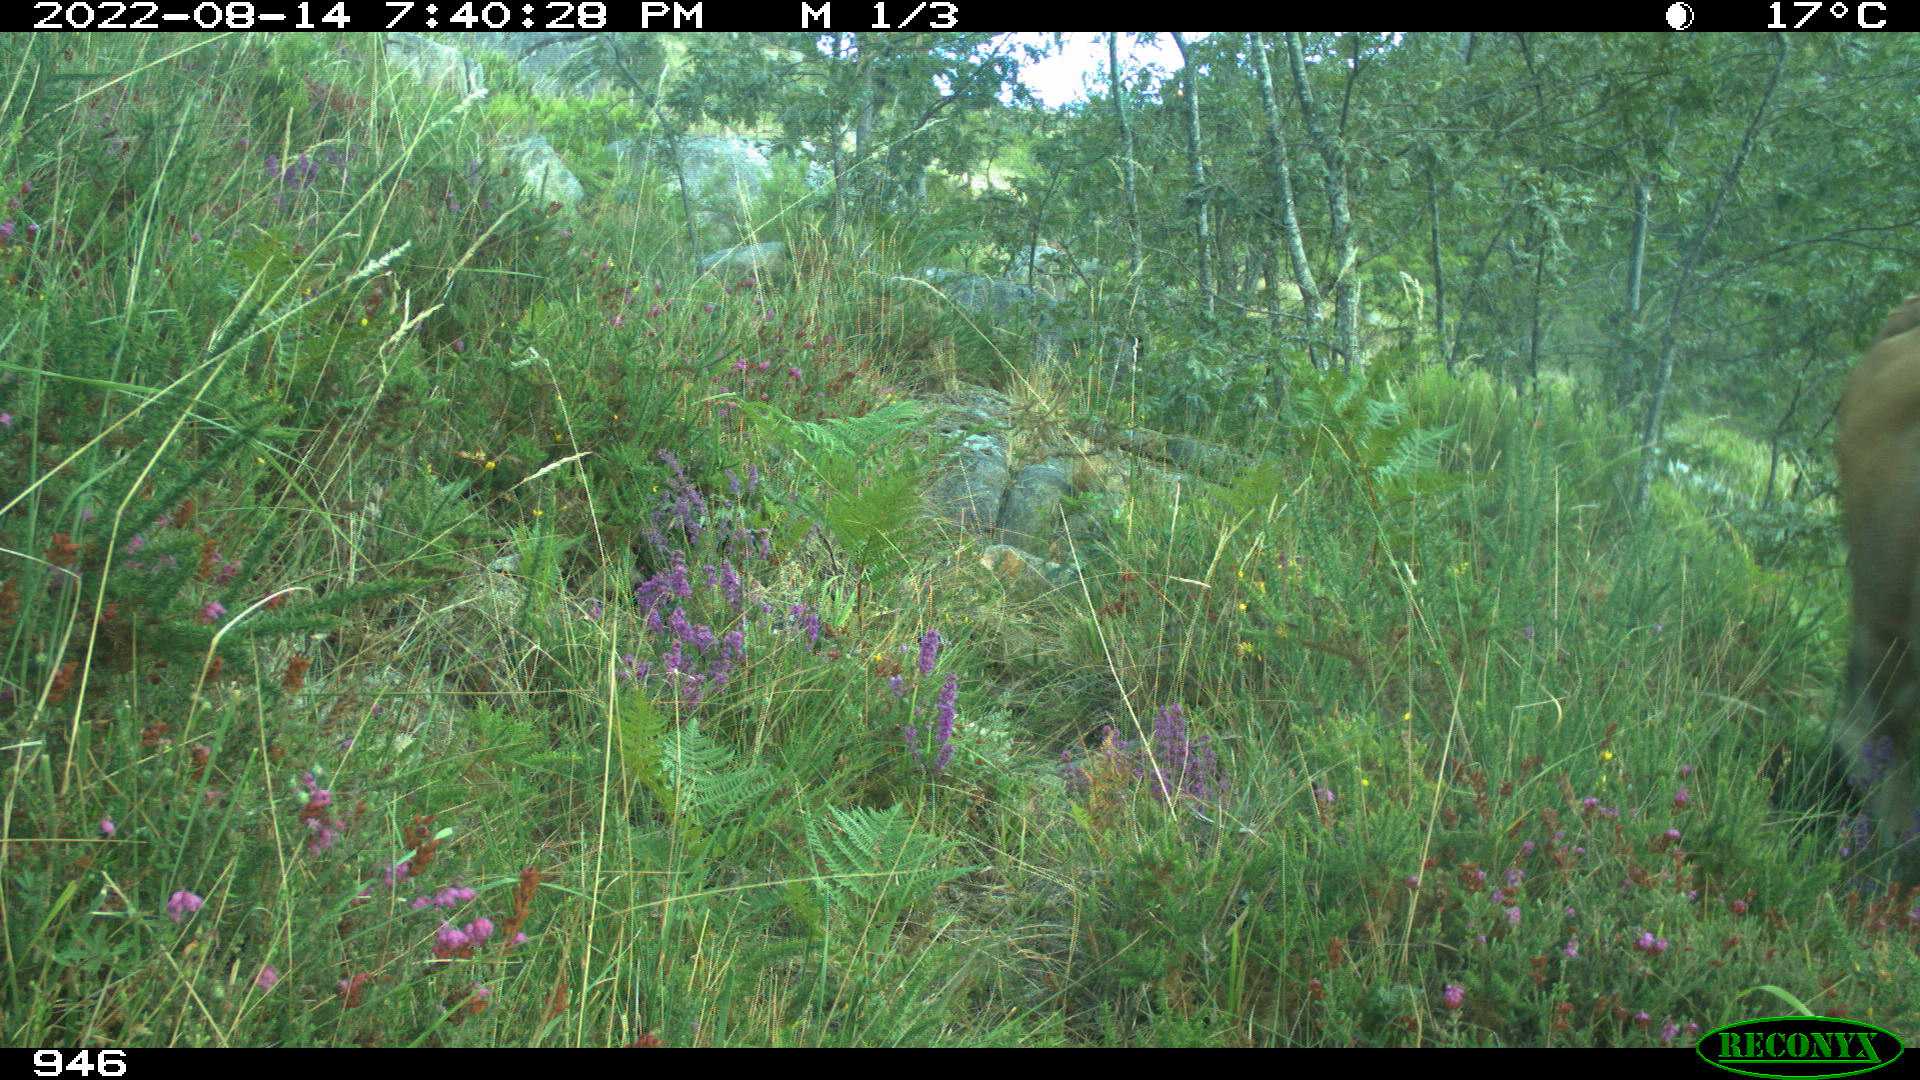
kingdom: Animalia
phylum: Chordata
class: Mammalia
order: Artiodactyla
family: Bovidae
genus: Bos
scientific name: Bos taurus
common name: Domesticated cattle
